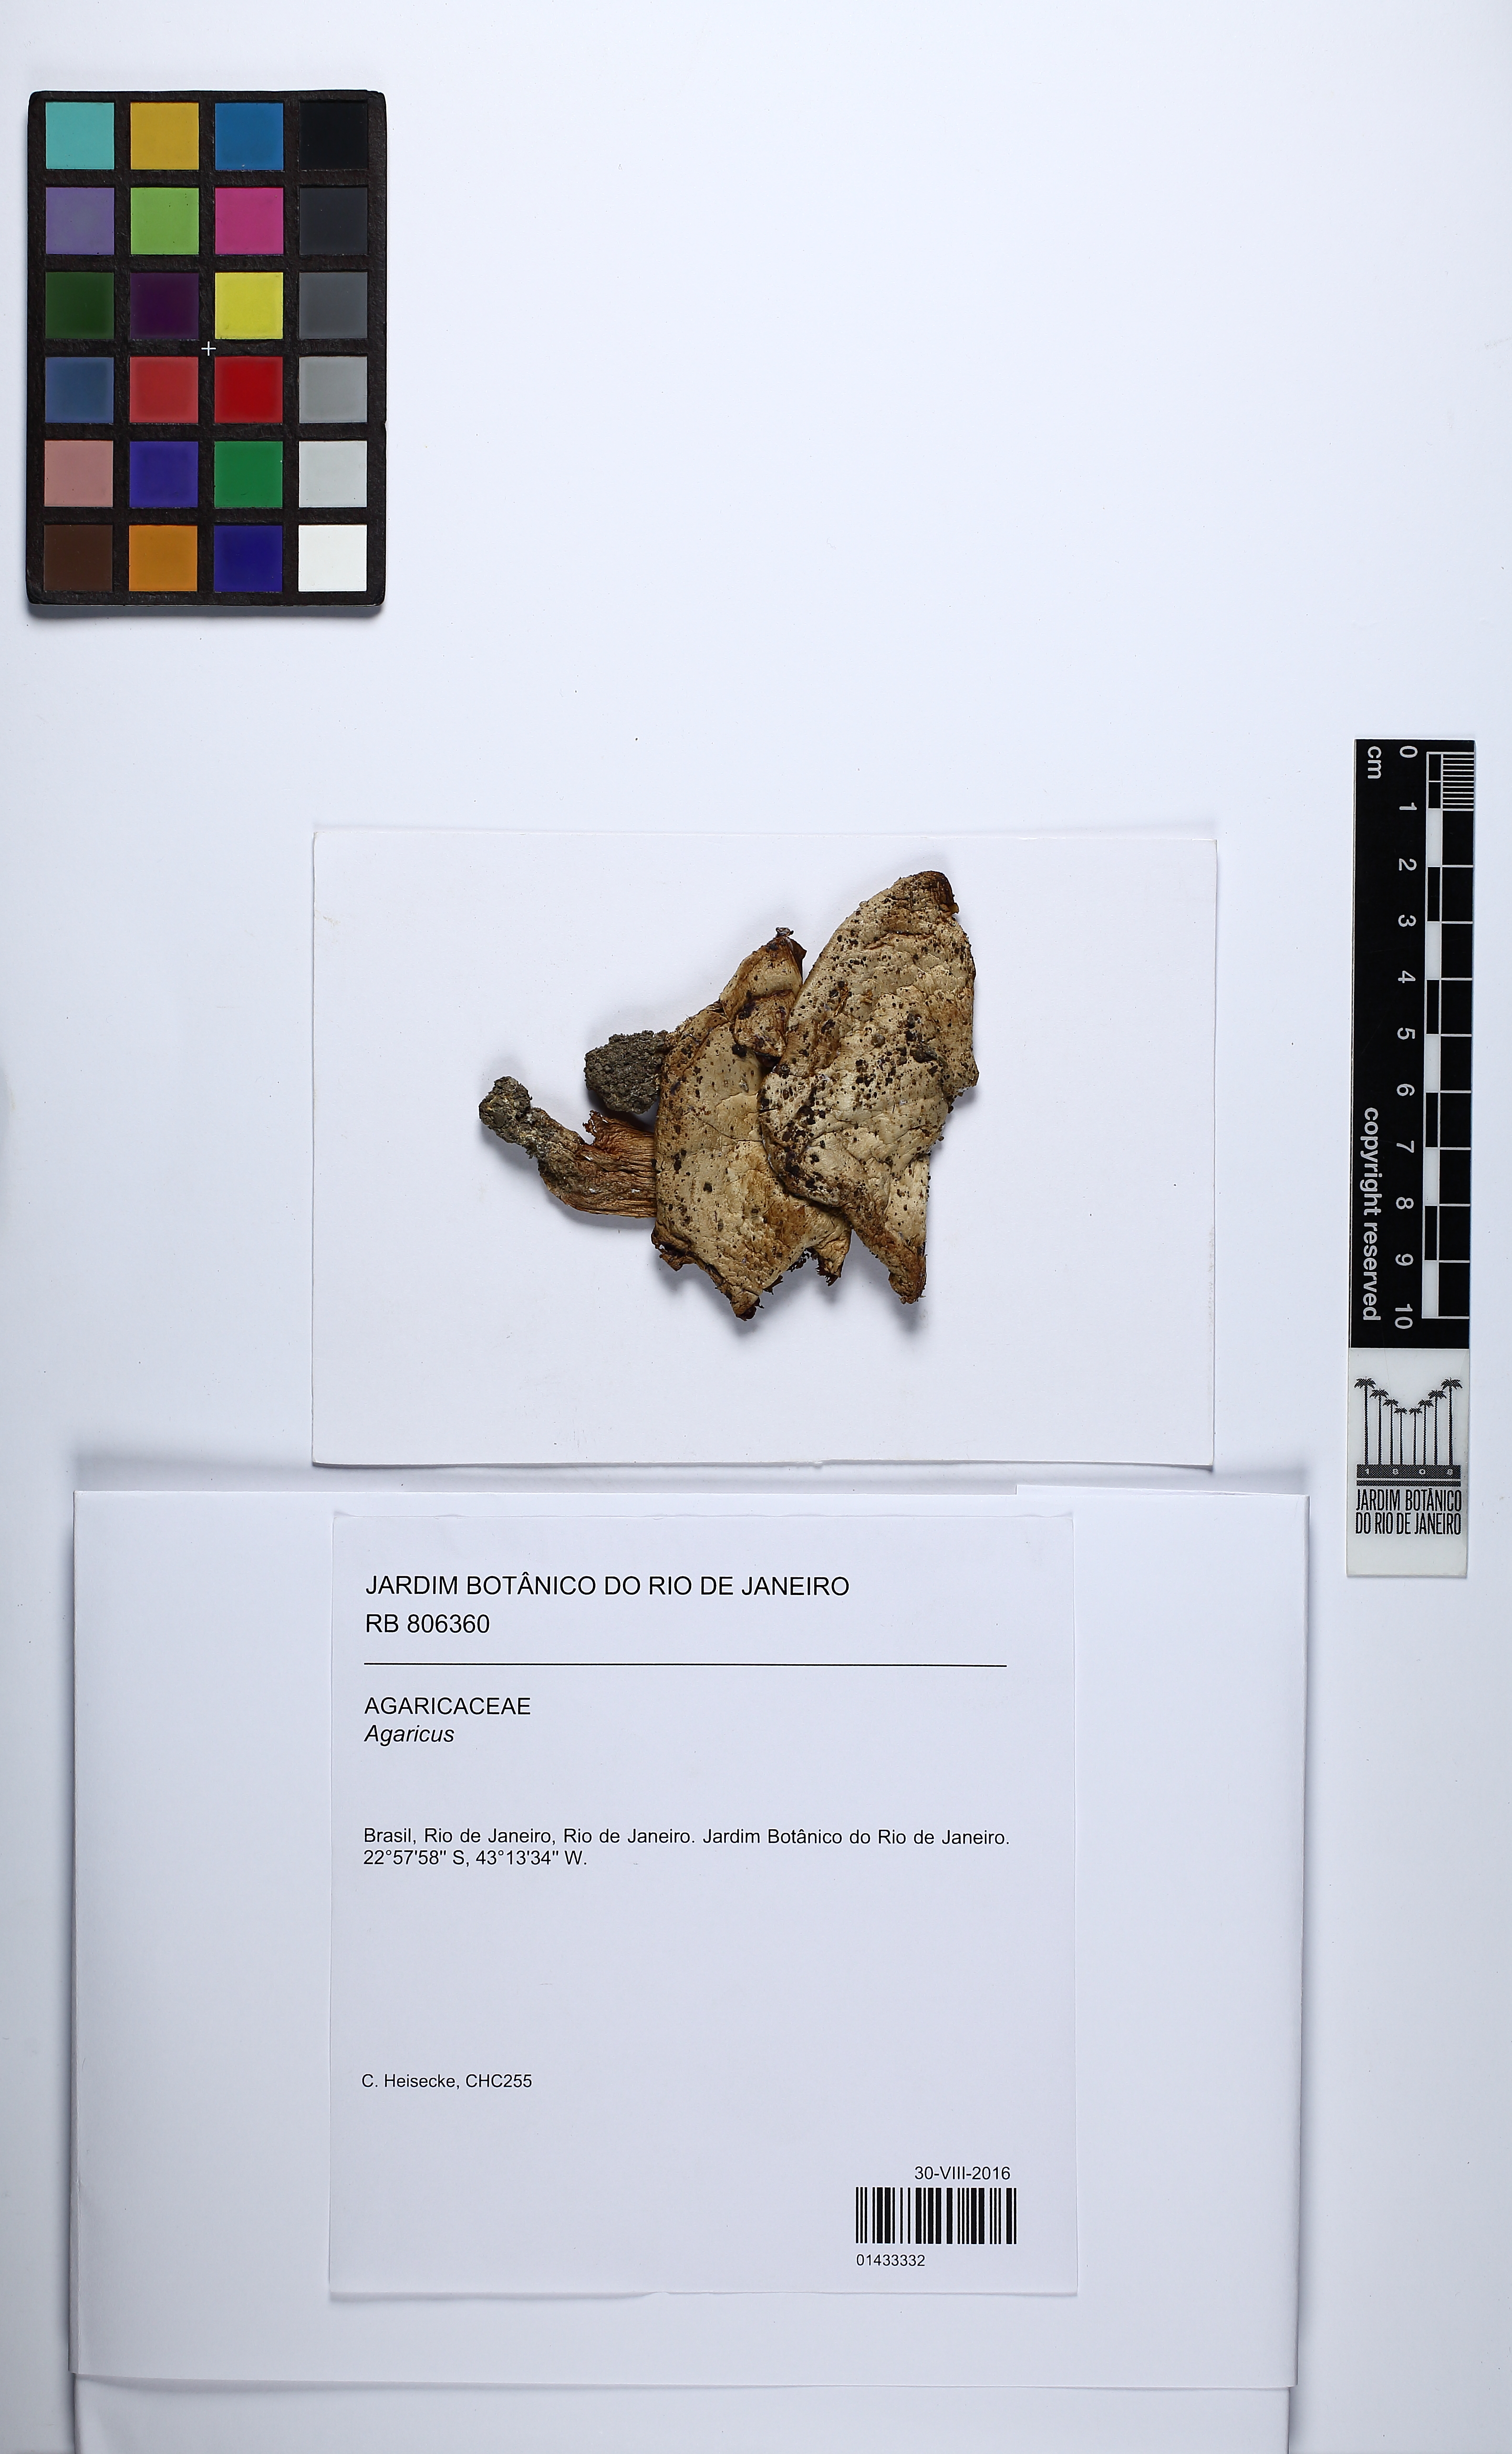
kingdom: Fungi
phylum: Basidiomycota
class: Agaricomycetes
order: Agaricales
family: Agaricaceae
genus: Agaricus
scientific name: Agaricus
